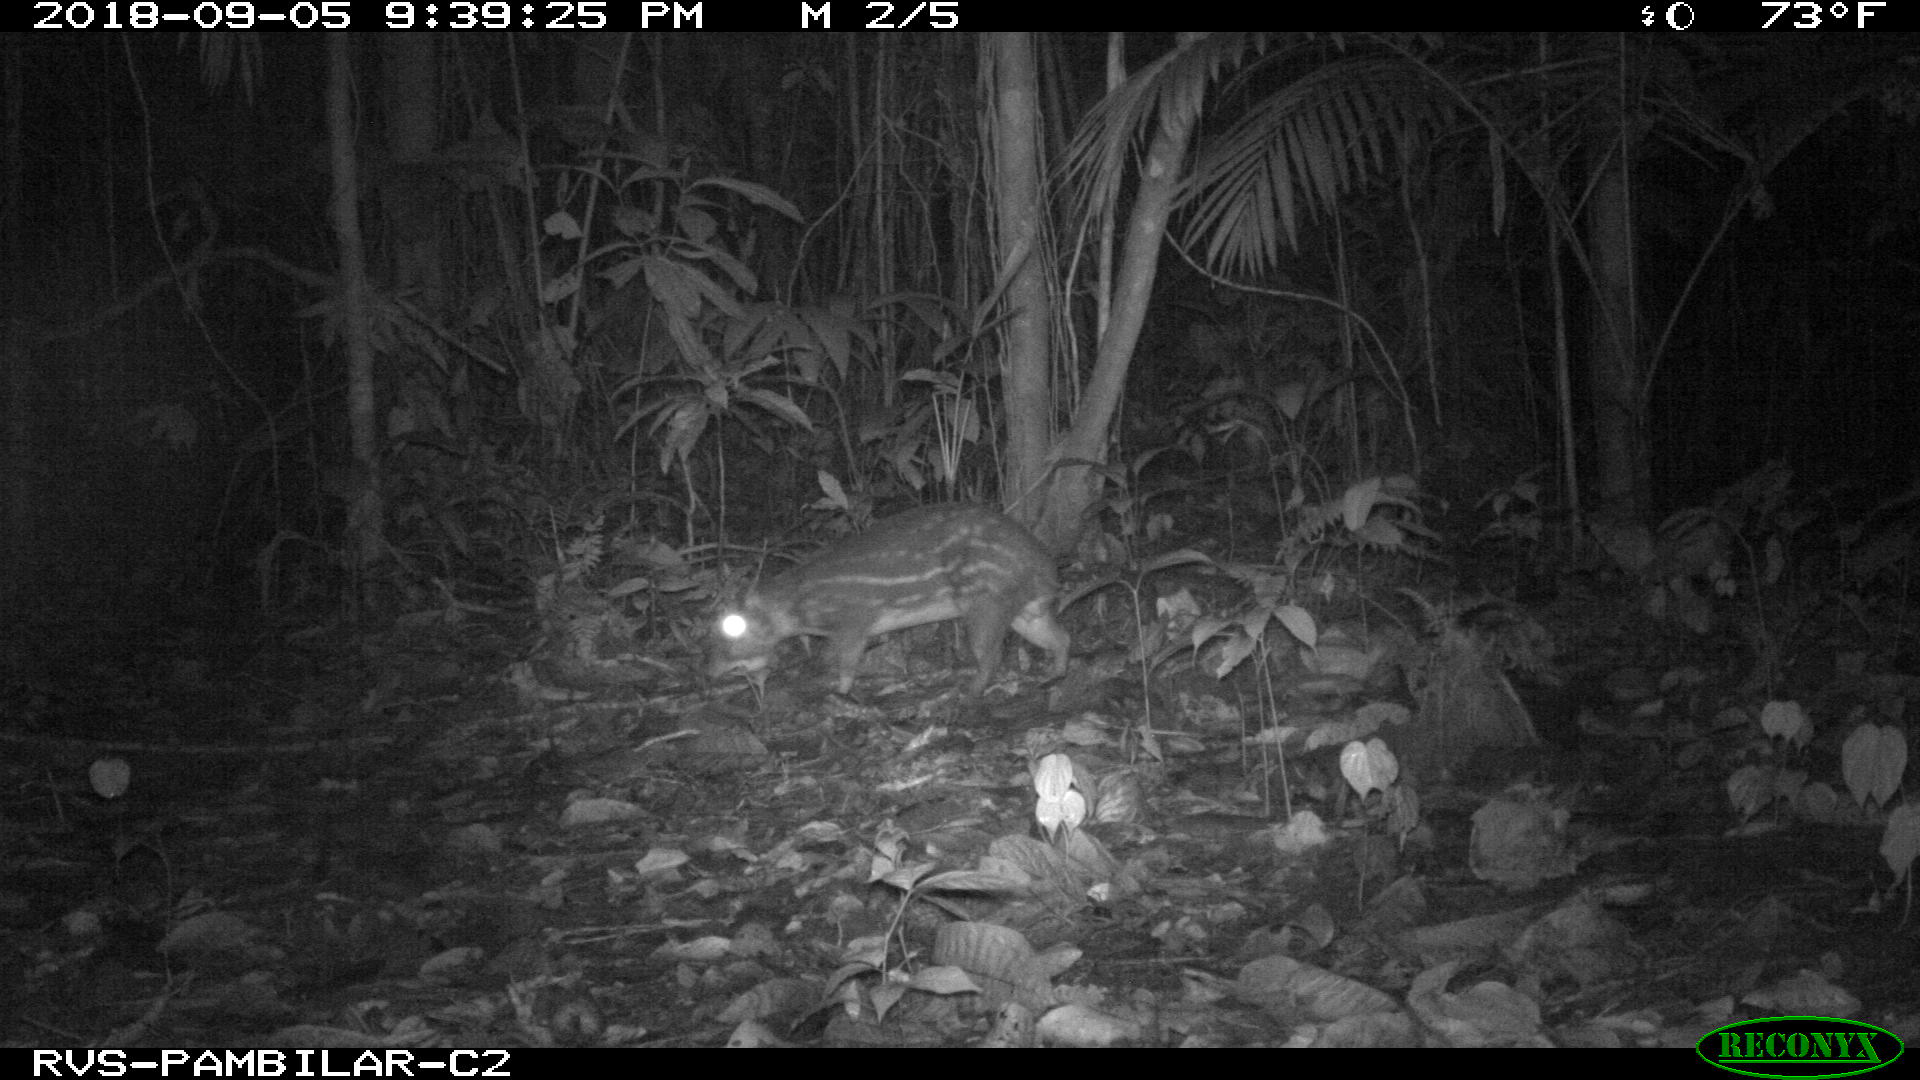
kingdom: Animalia
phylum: Chordata
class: Mammalia
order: Rodentia
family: Cuniculidae
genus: Cuniculus
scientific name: Cuniculus paca
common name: Lowland paca
